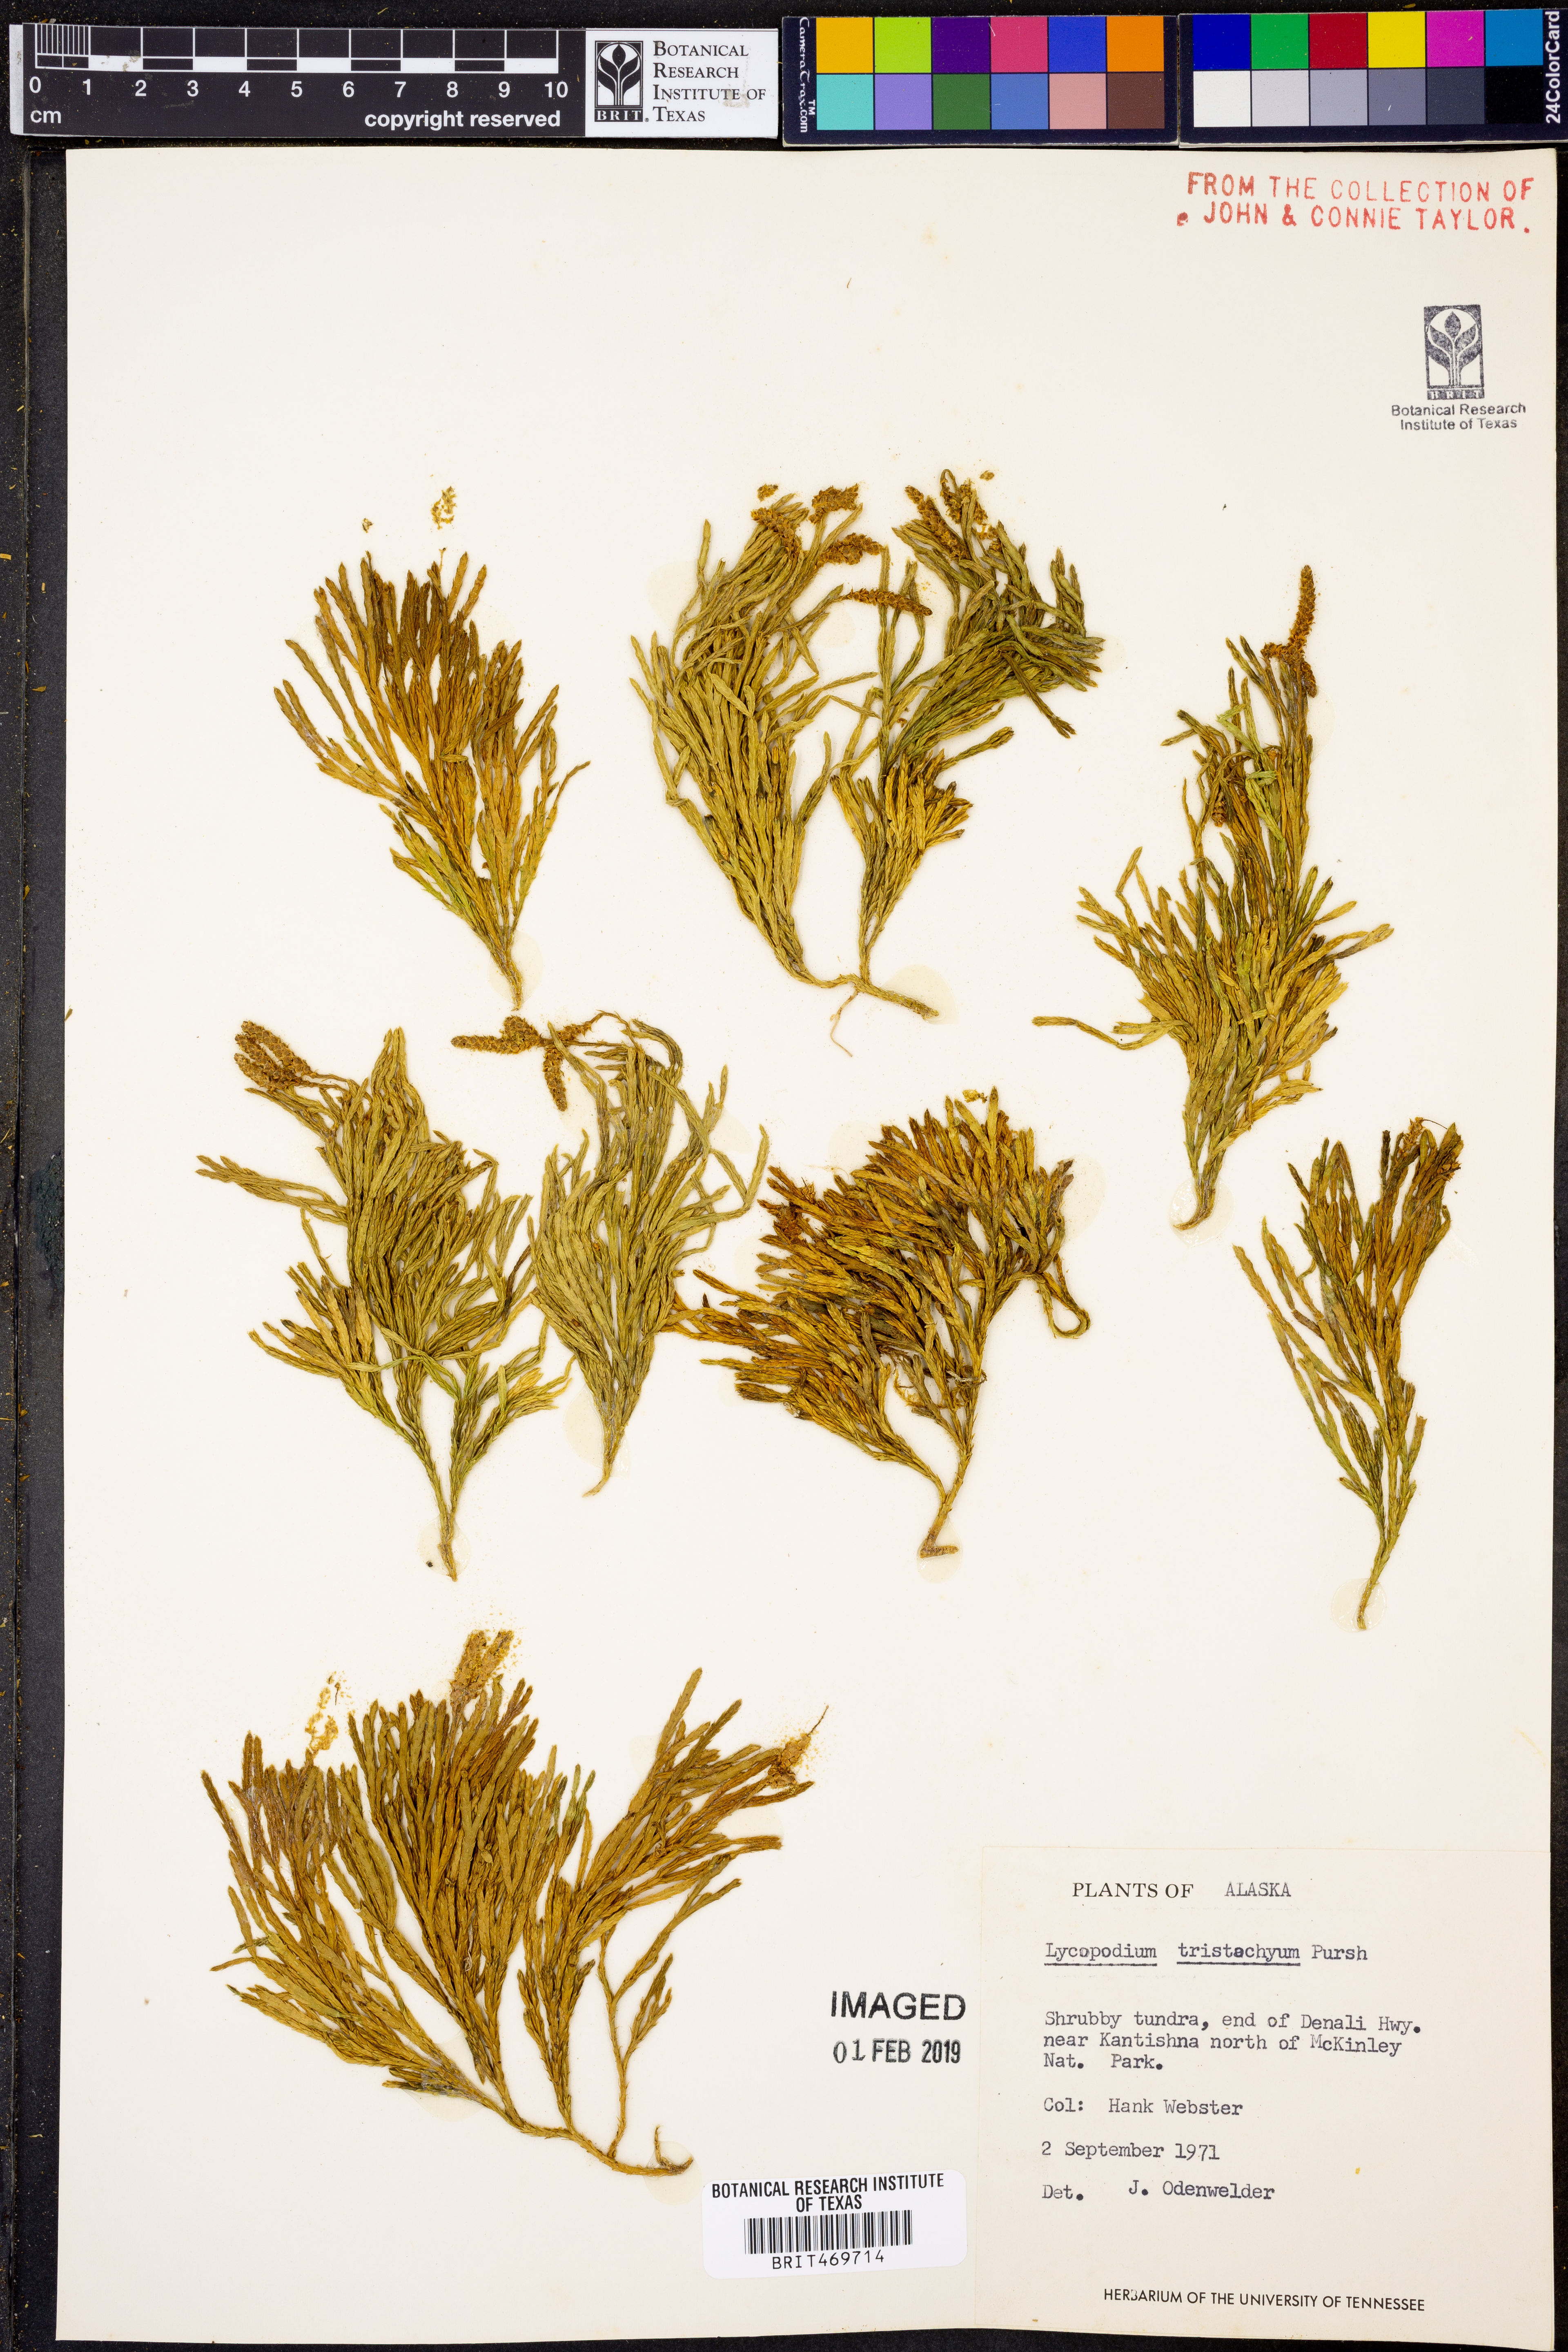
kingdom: Plantae
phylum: Tracheophyta
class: Lycopodiopsida
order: Lycopodiales
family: Lycopodiaceae
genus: Diphasiastrum
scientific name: Diphasiastrum tristachyum
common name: Blue ground-cedar
